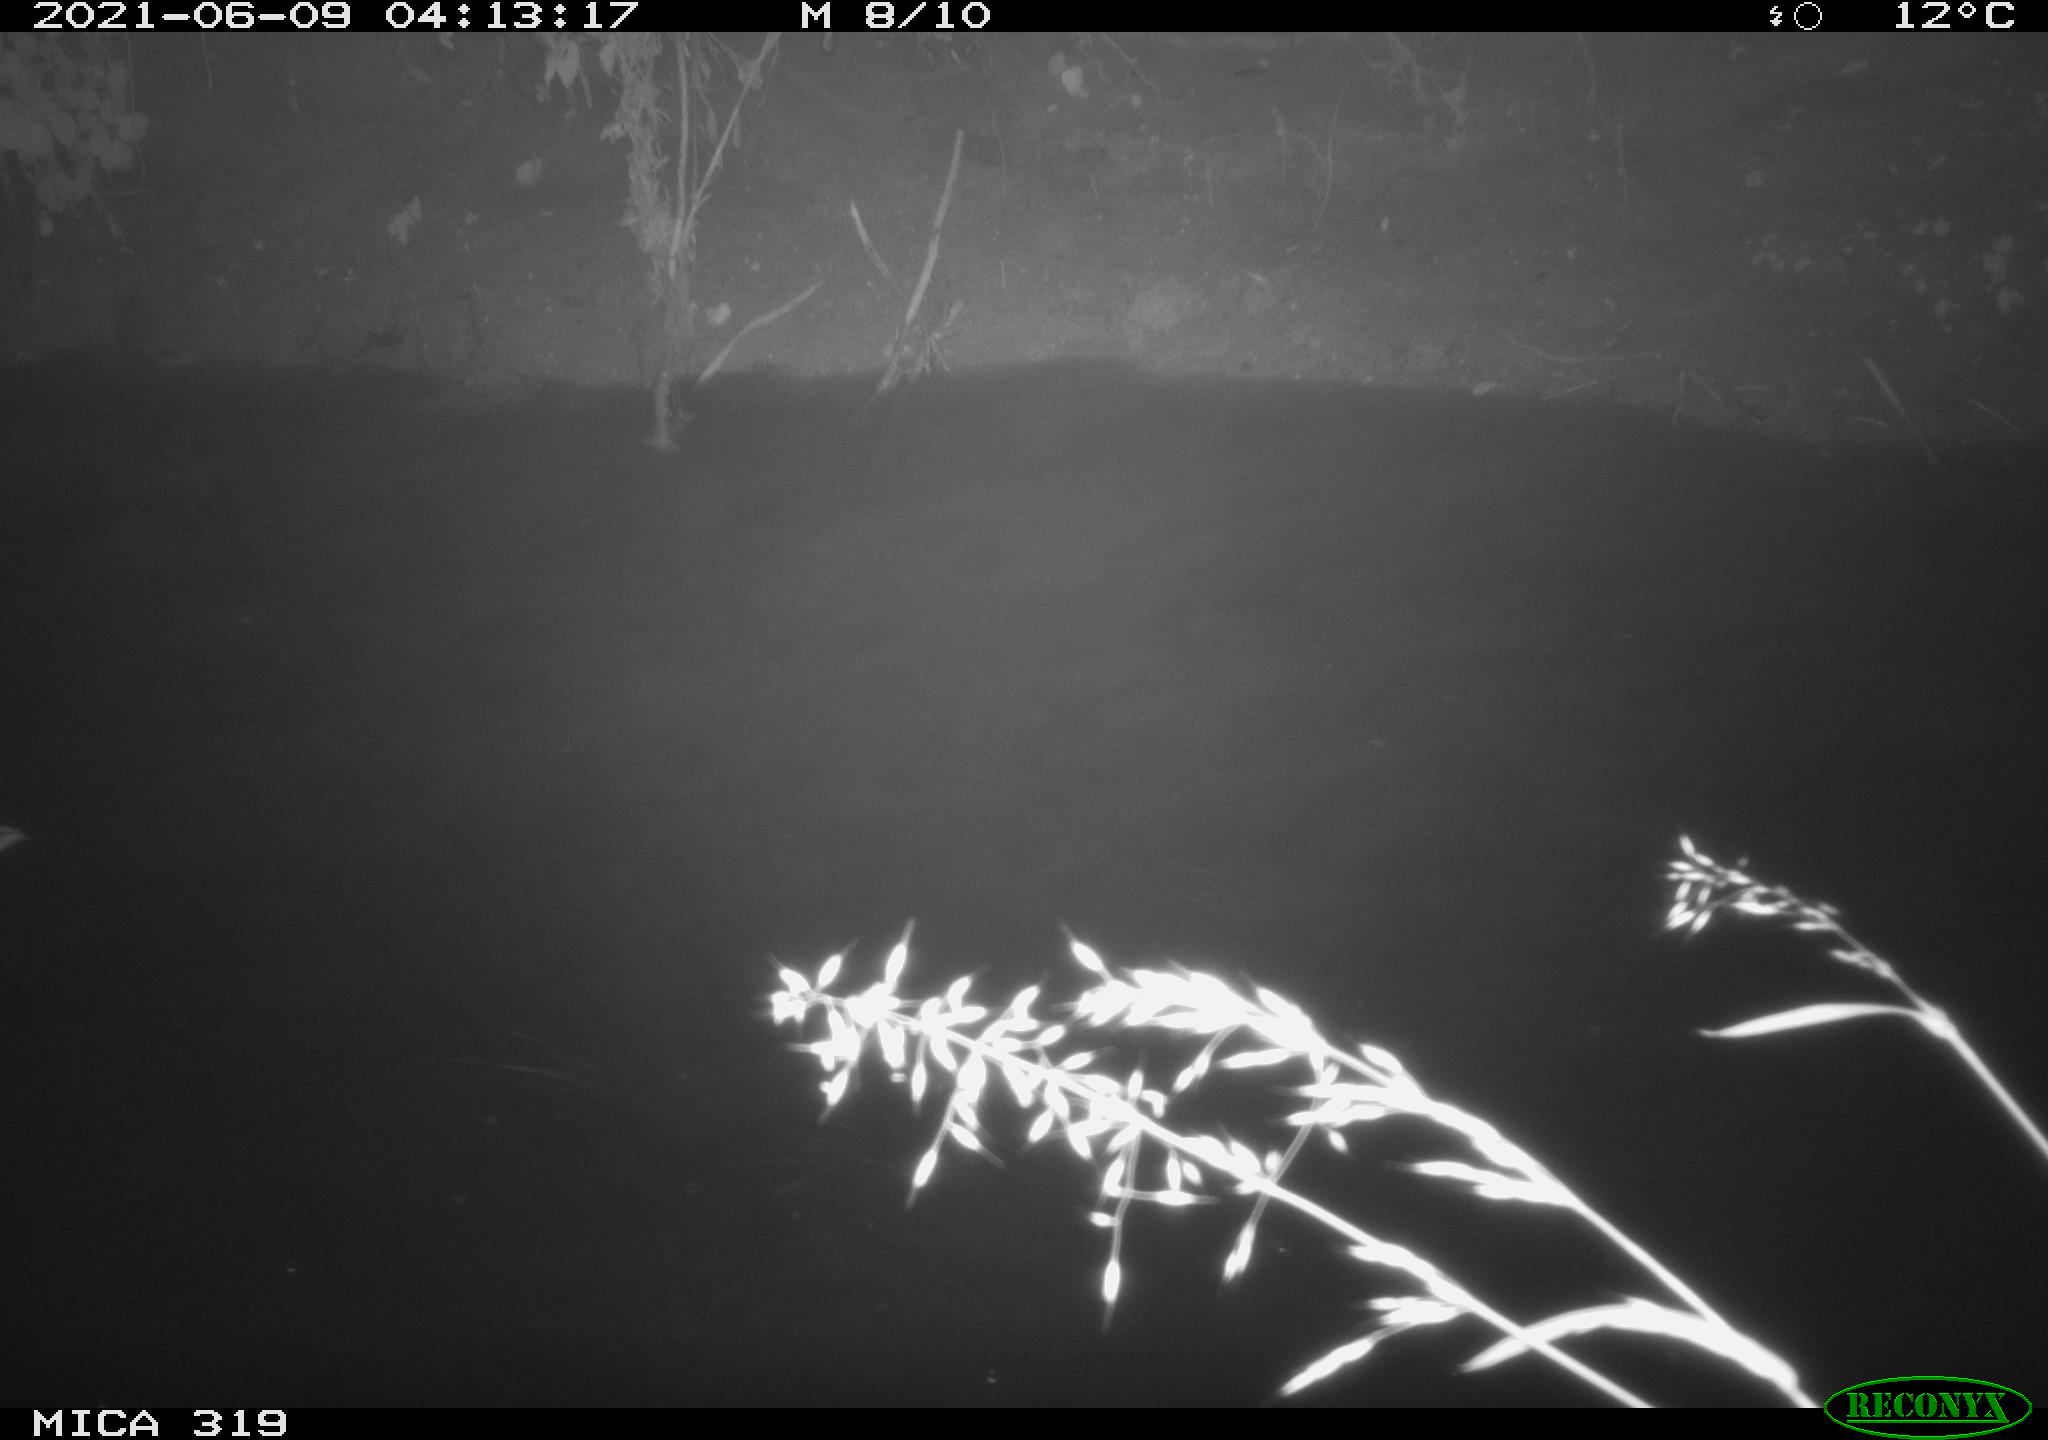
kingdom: Animalia
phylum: Chordata
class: Aves
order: Anseriformes
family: Anatidae
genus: Anas
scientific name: Anas platyrhynchos
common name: Mallard
